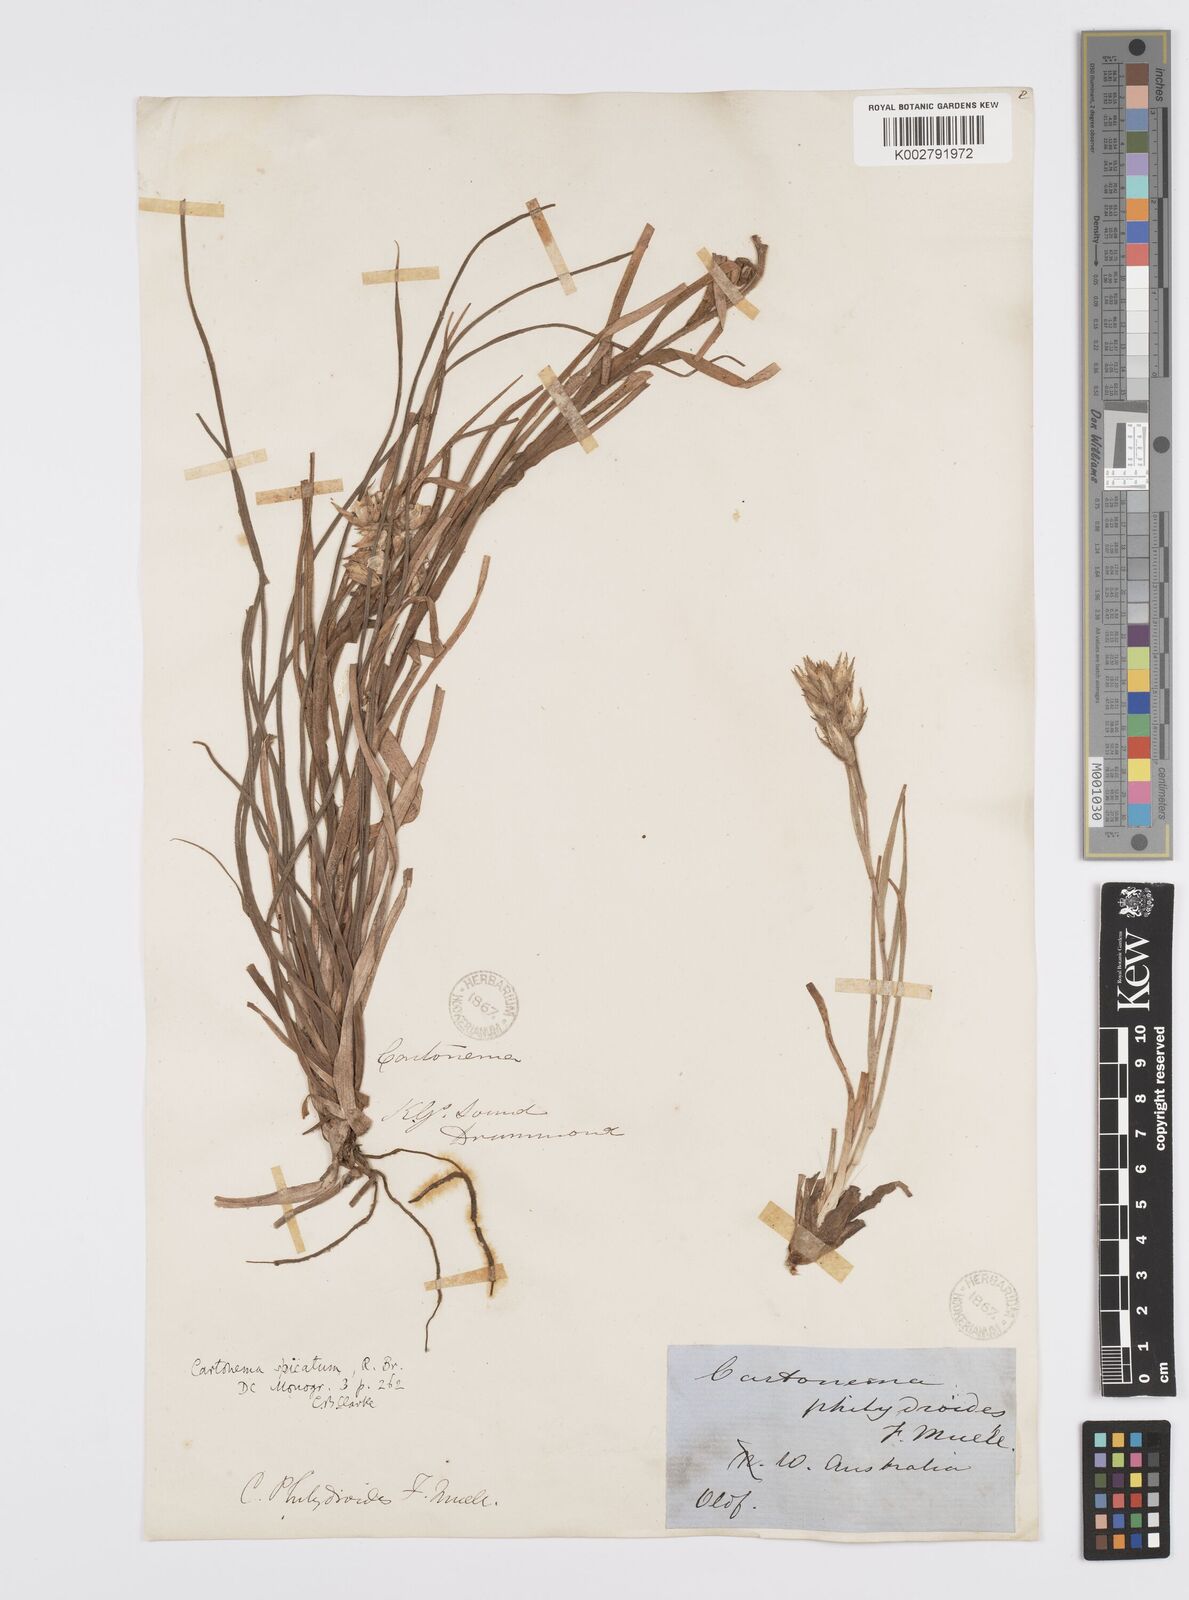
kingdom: Plantae
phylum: Tracheophyta
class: Liliopsida
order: Commelinales
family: Commelinaceae
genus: Cartonema
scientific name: Cartonema philydroides
